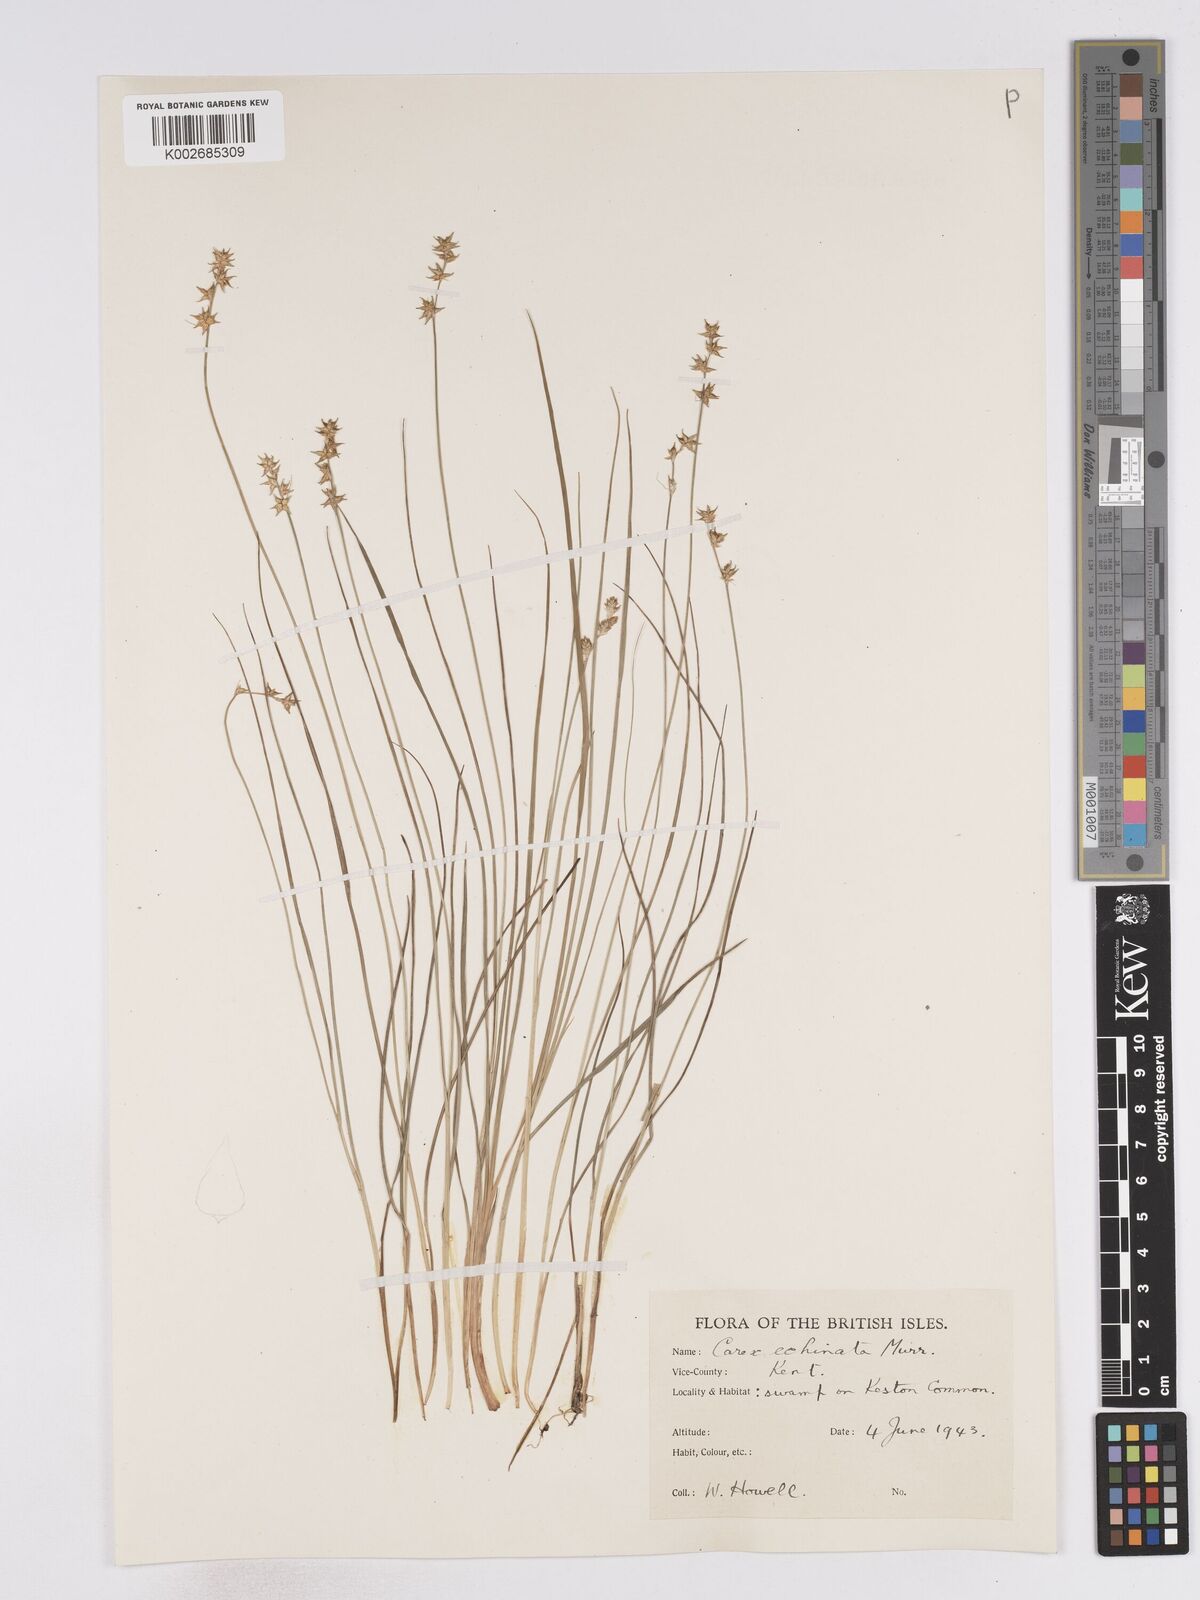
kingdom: Plantae
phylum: Tracheophyta
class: Liliopsida
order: Poales
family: Cyperaceae
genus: Carex
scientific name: Carex echinata
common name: Star sedge
